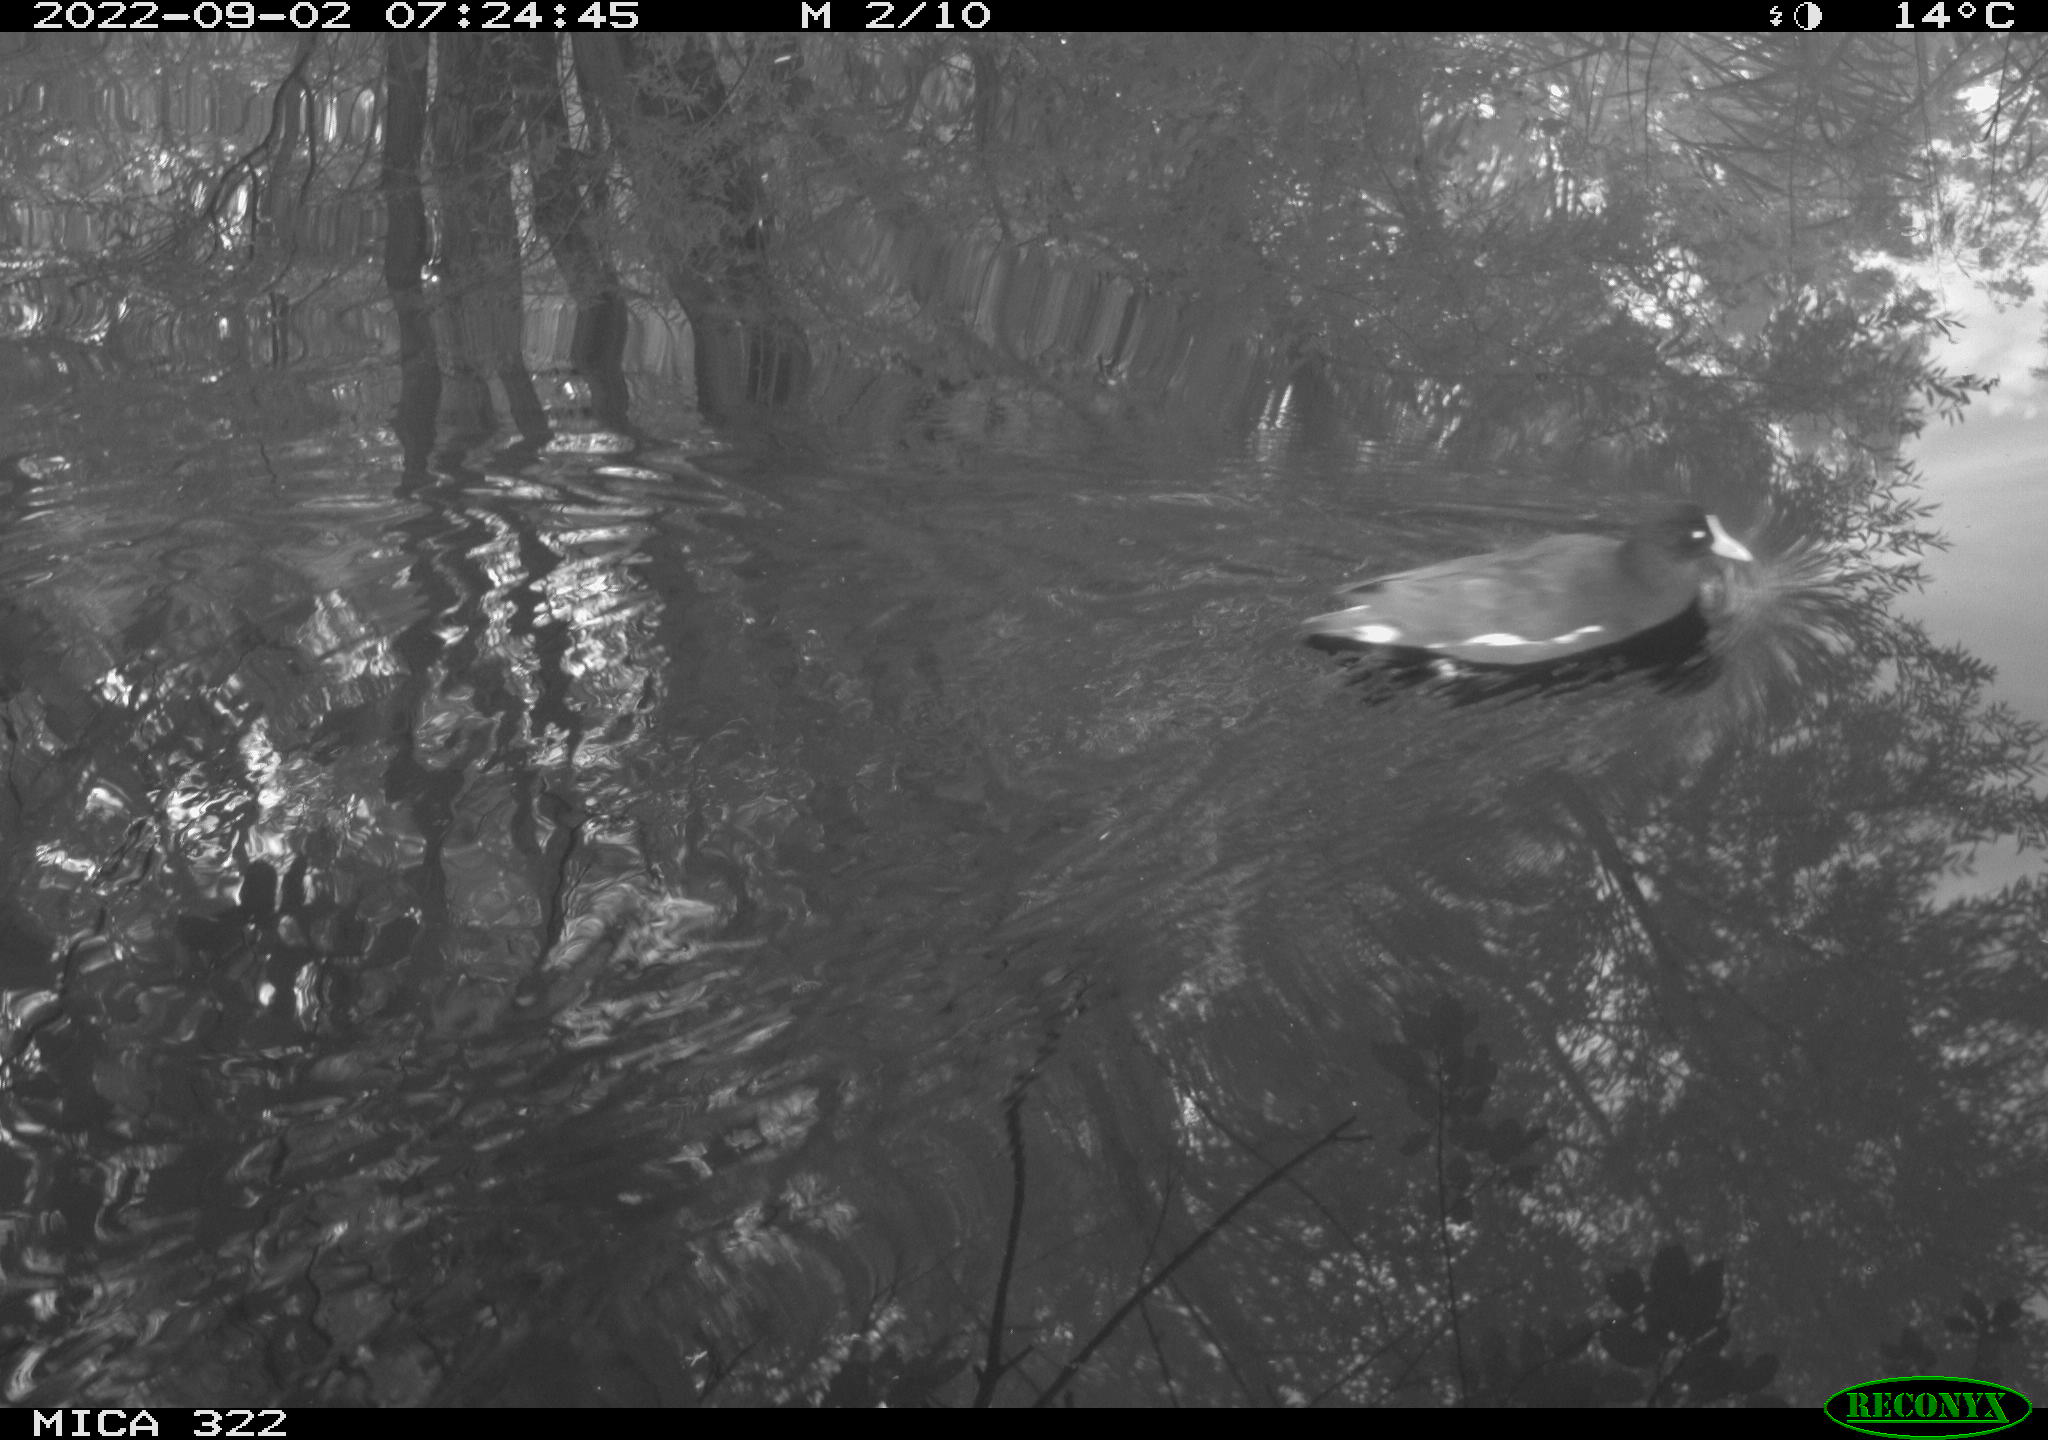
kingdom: Animalia
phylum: Chordata
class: Aves
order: Gruiformes
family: Rallidae
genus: Gallinula
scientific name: Gallinula chloropus
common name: Common moorhen
